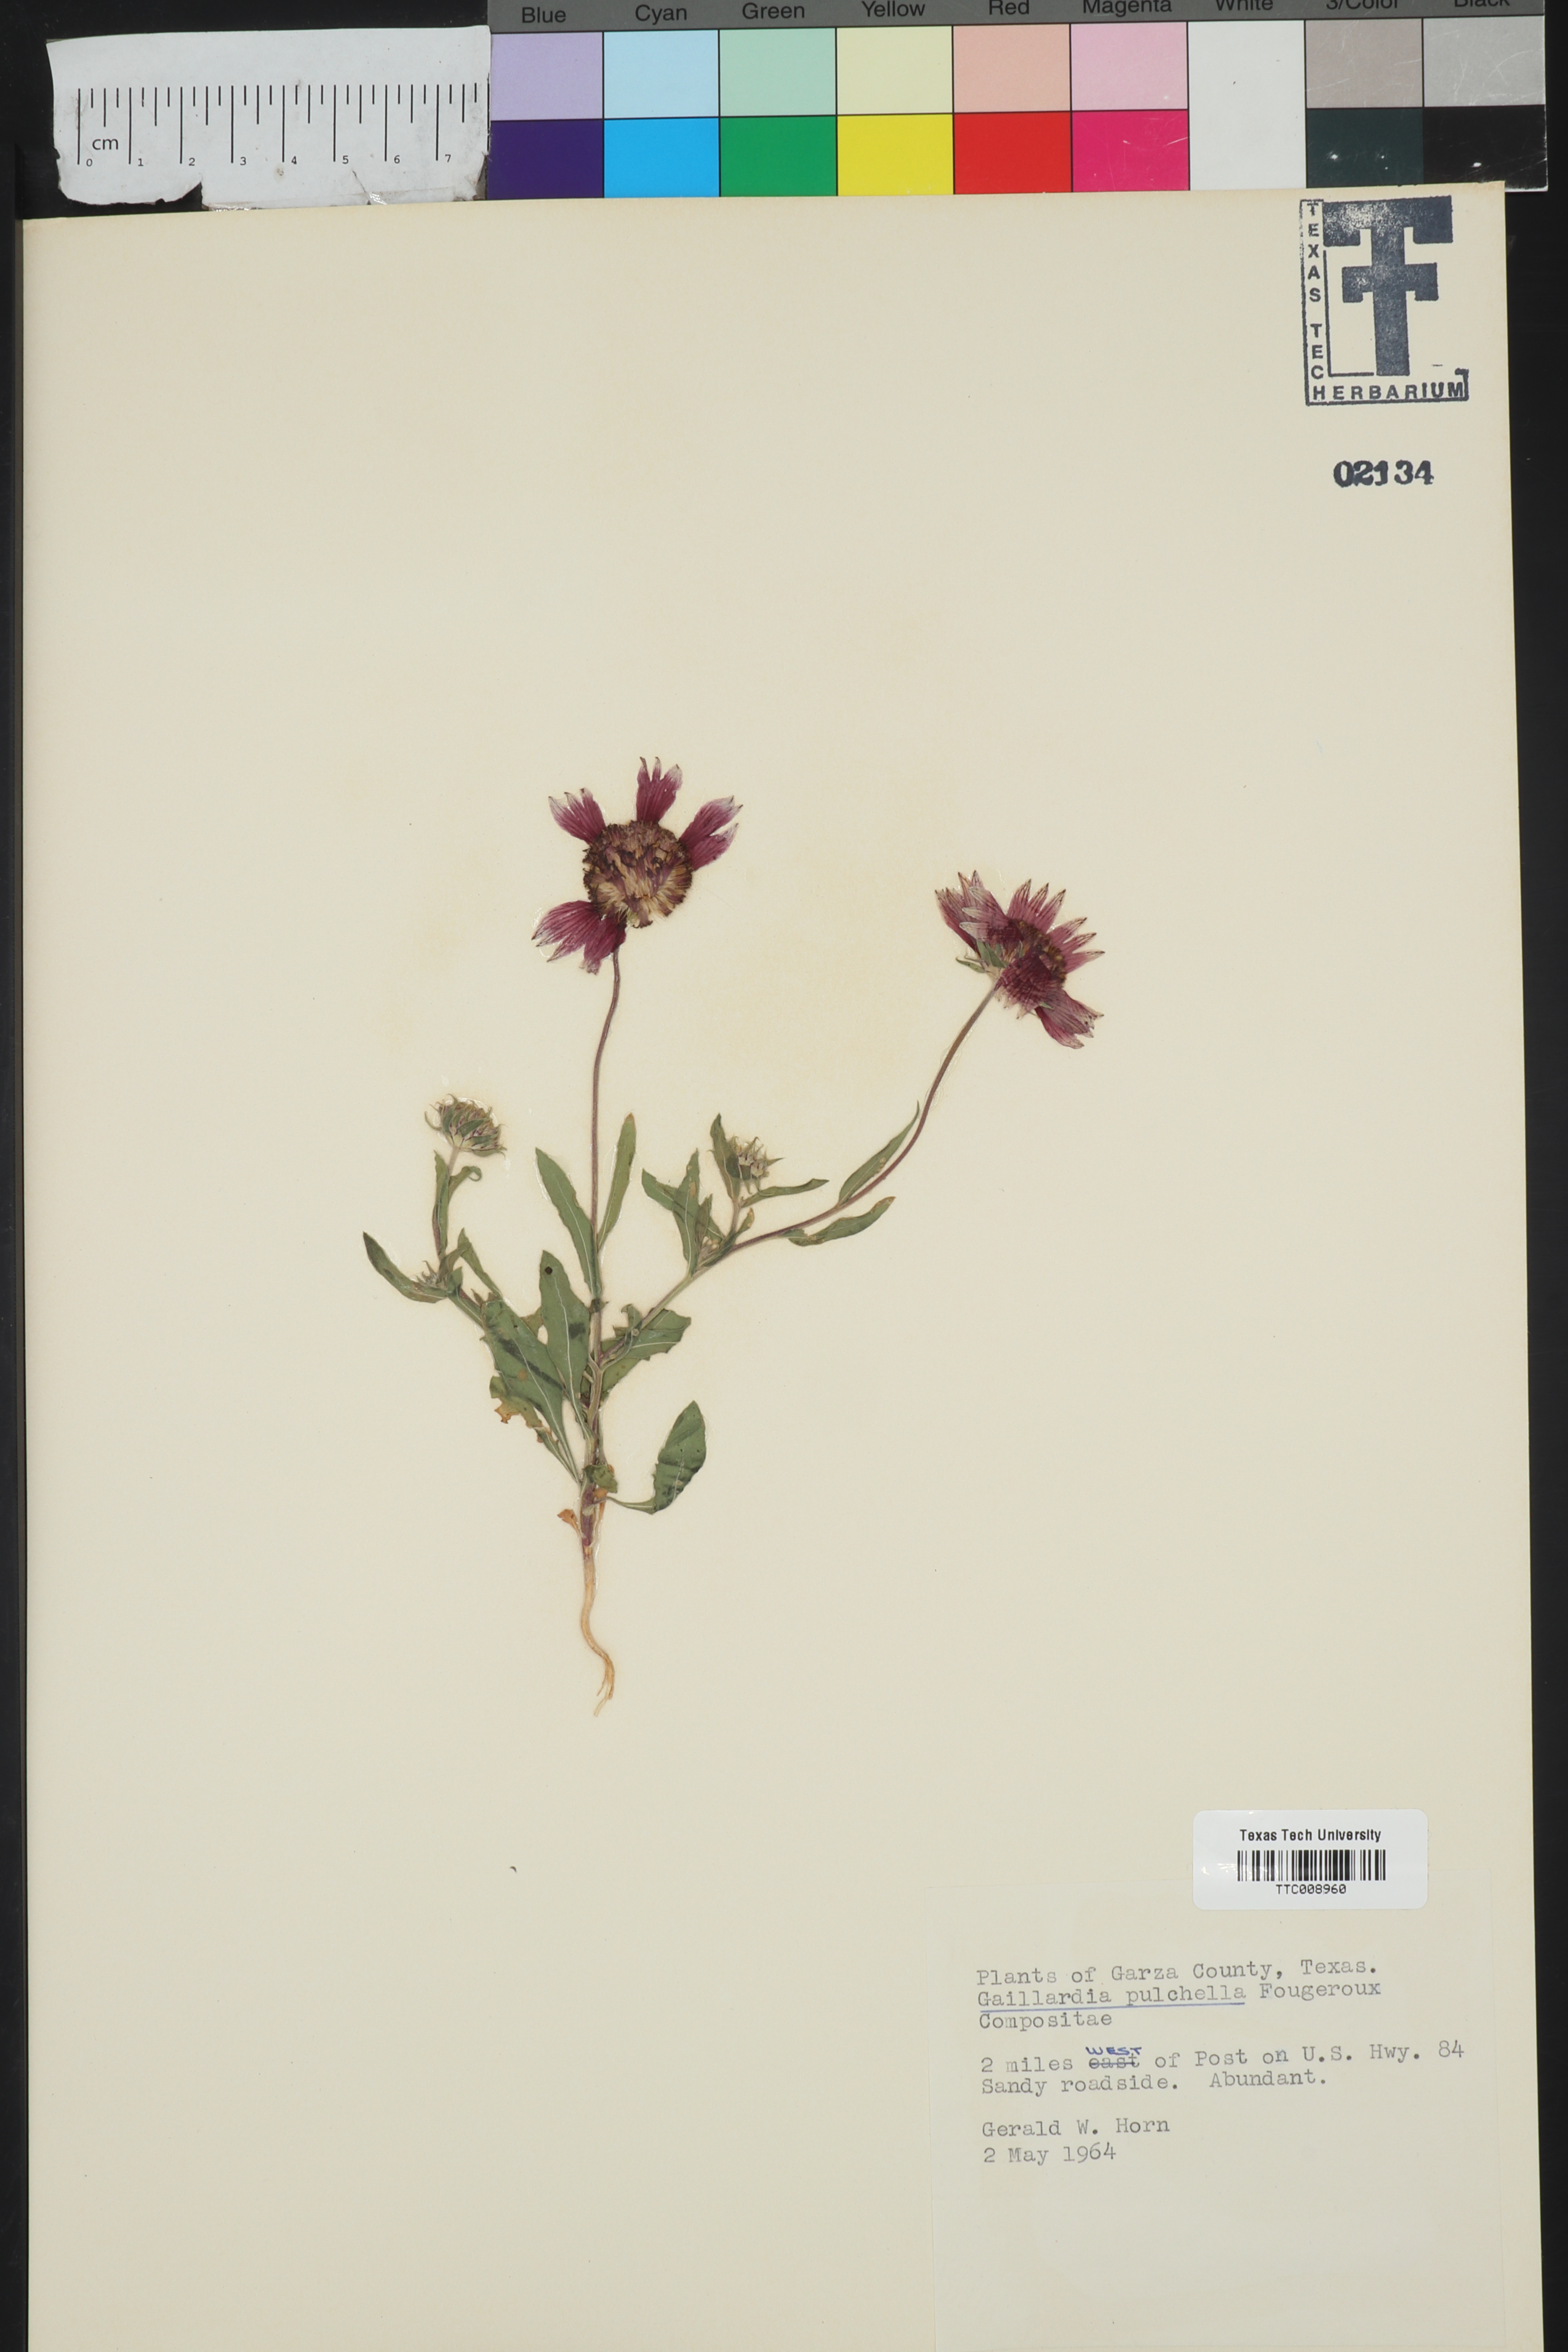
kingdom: Plantae
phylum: Tracheophyta
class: Magnoliopsida
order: Asterales
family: Asteraceae
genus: Gaillardia
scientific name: Gaillardia pulchella
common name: Firewheel
